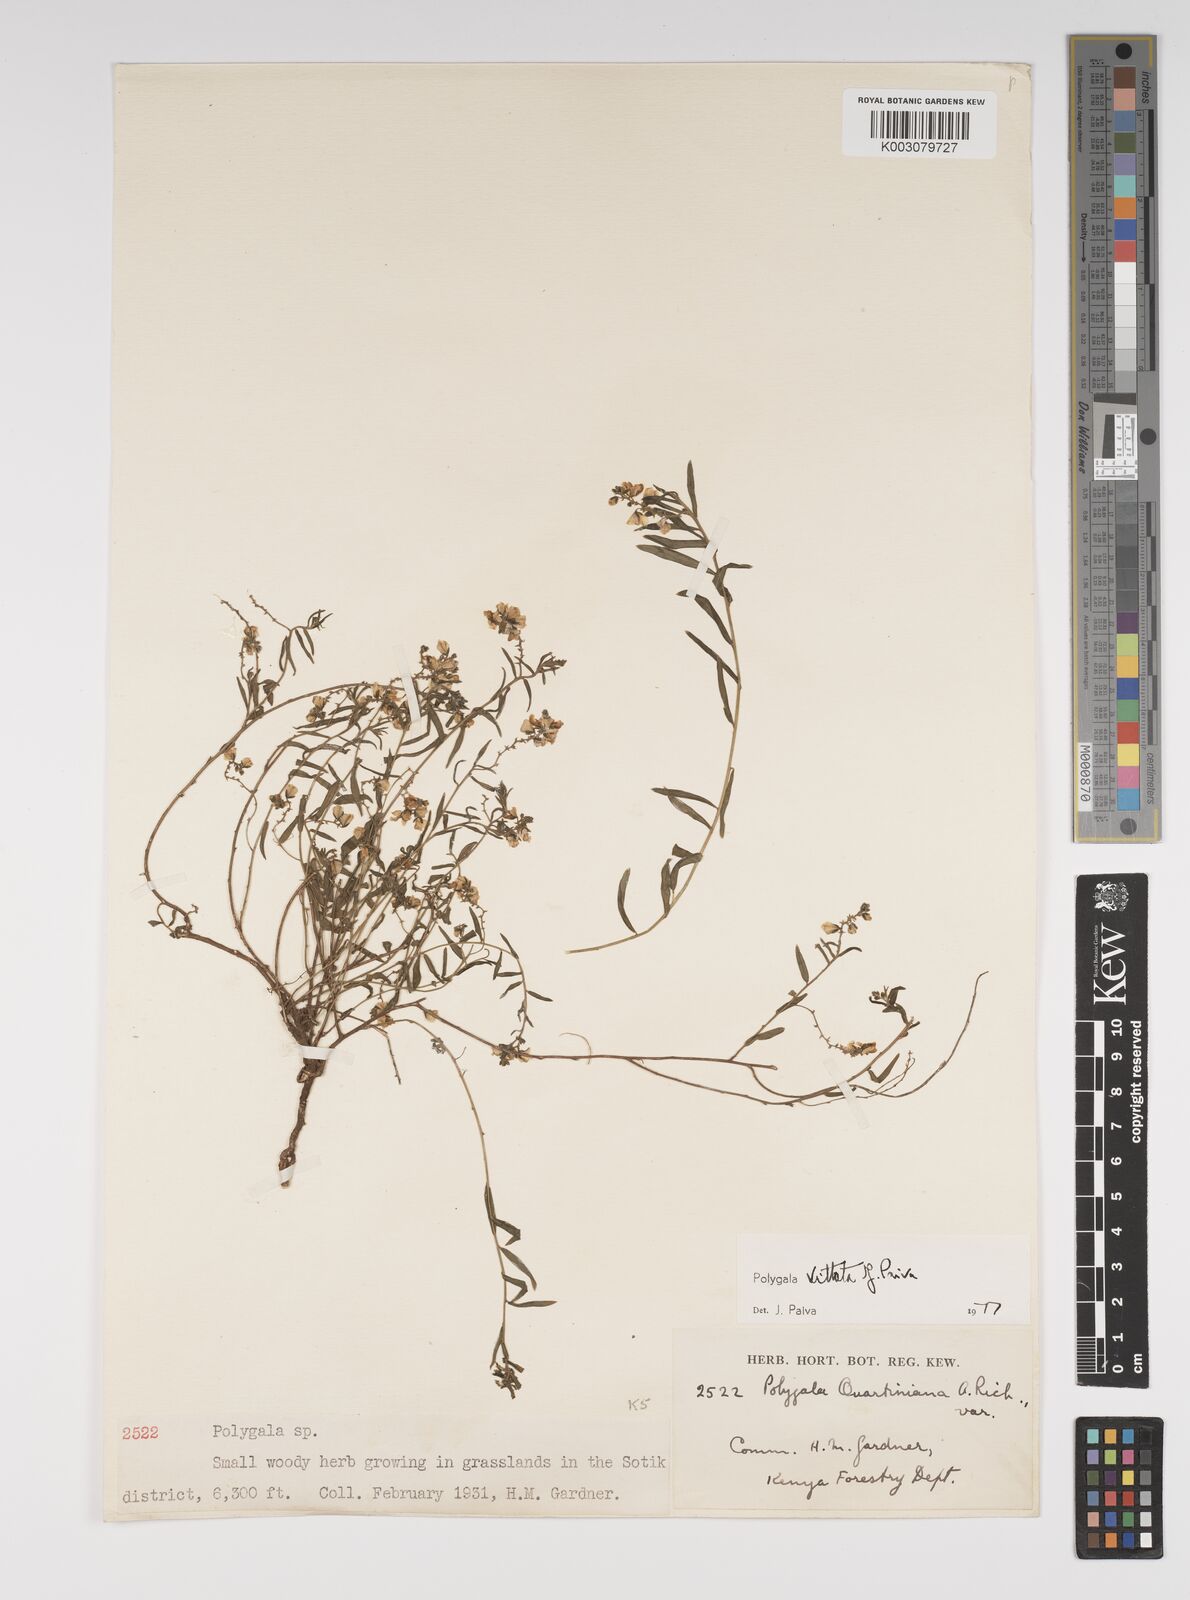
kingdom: Plantae
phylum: Tracheophyta
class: Magnoliopsida
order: Fabales
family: Polygalaceae
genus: Polygala
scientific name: Polygala vittata
